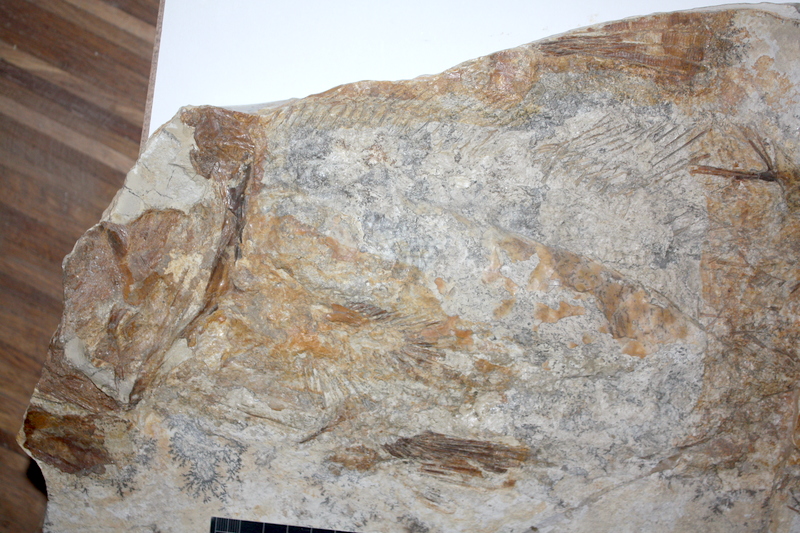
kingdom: Animalia
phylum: Chordata
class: Coelacanthi
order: Coelacanthiformes
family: Laugiidae
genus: Coccoderma
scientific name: Coccoderma bavaricum
